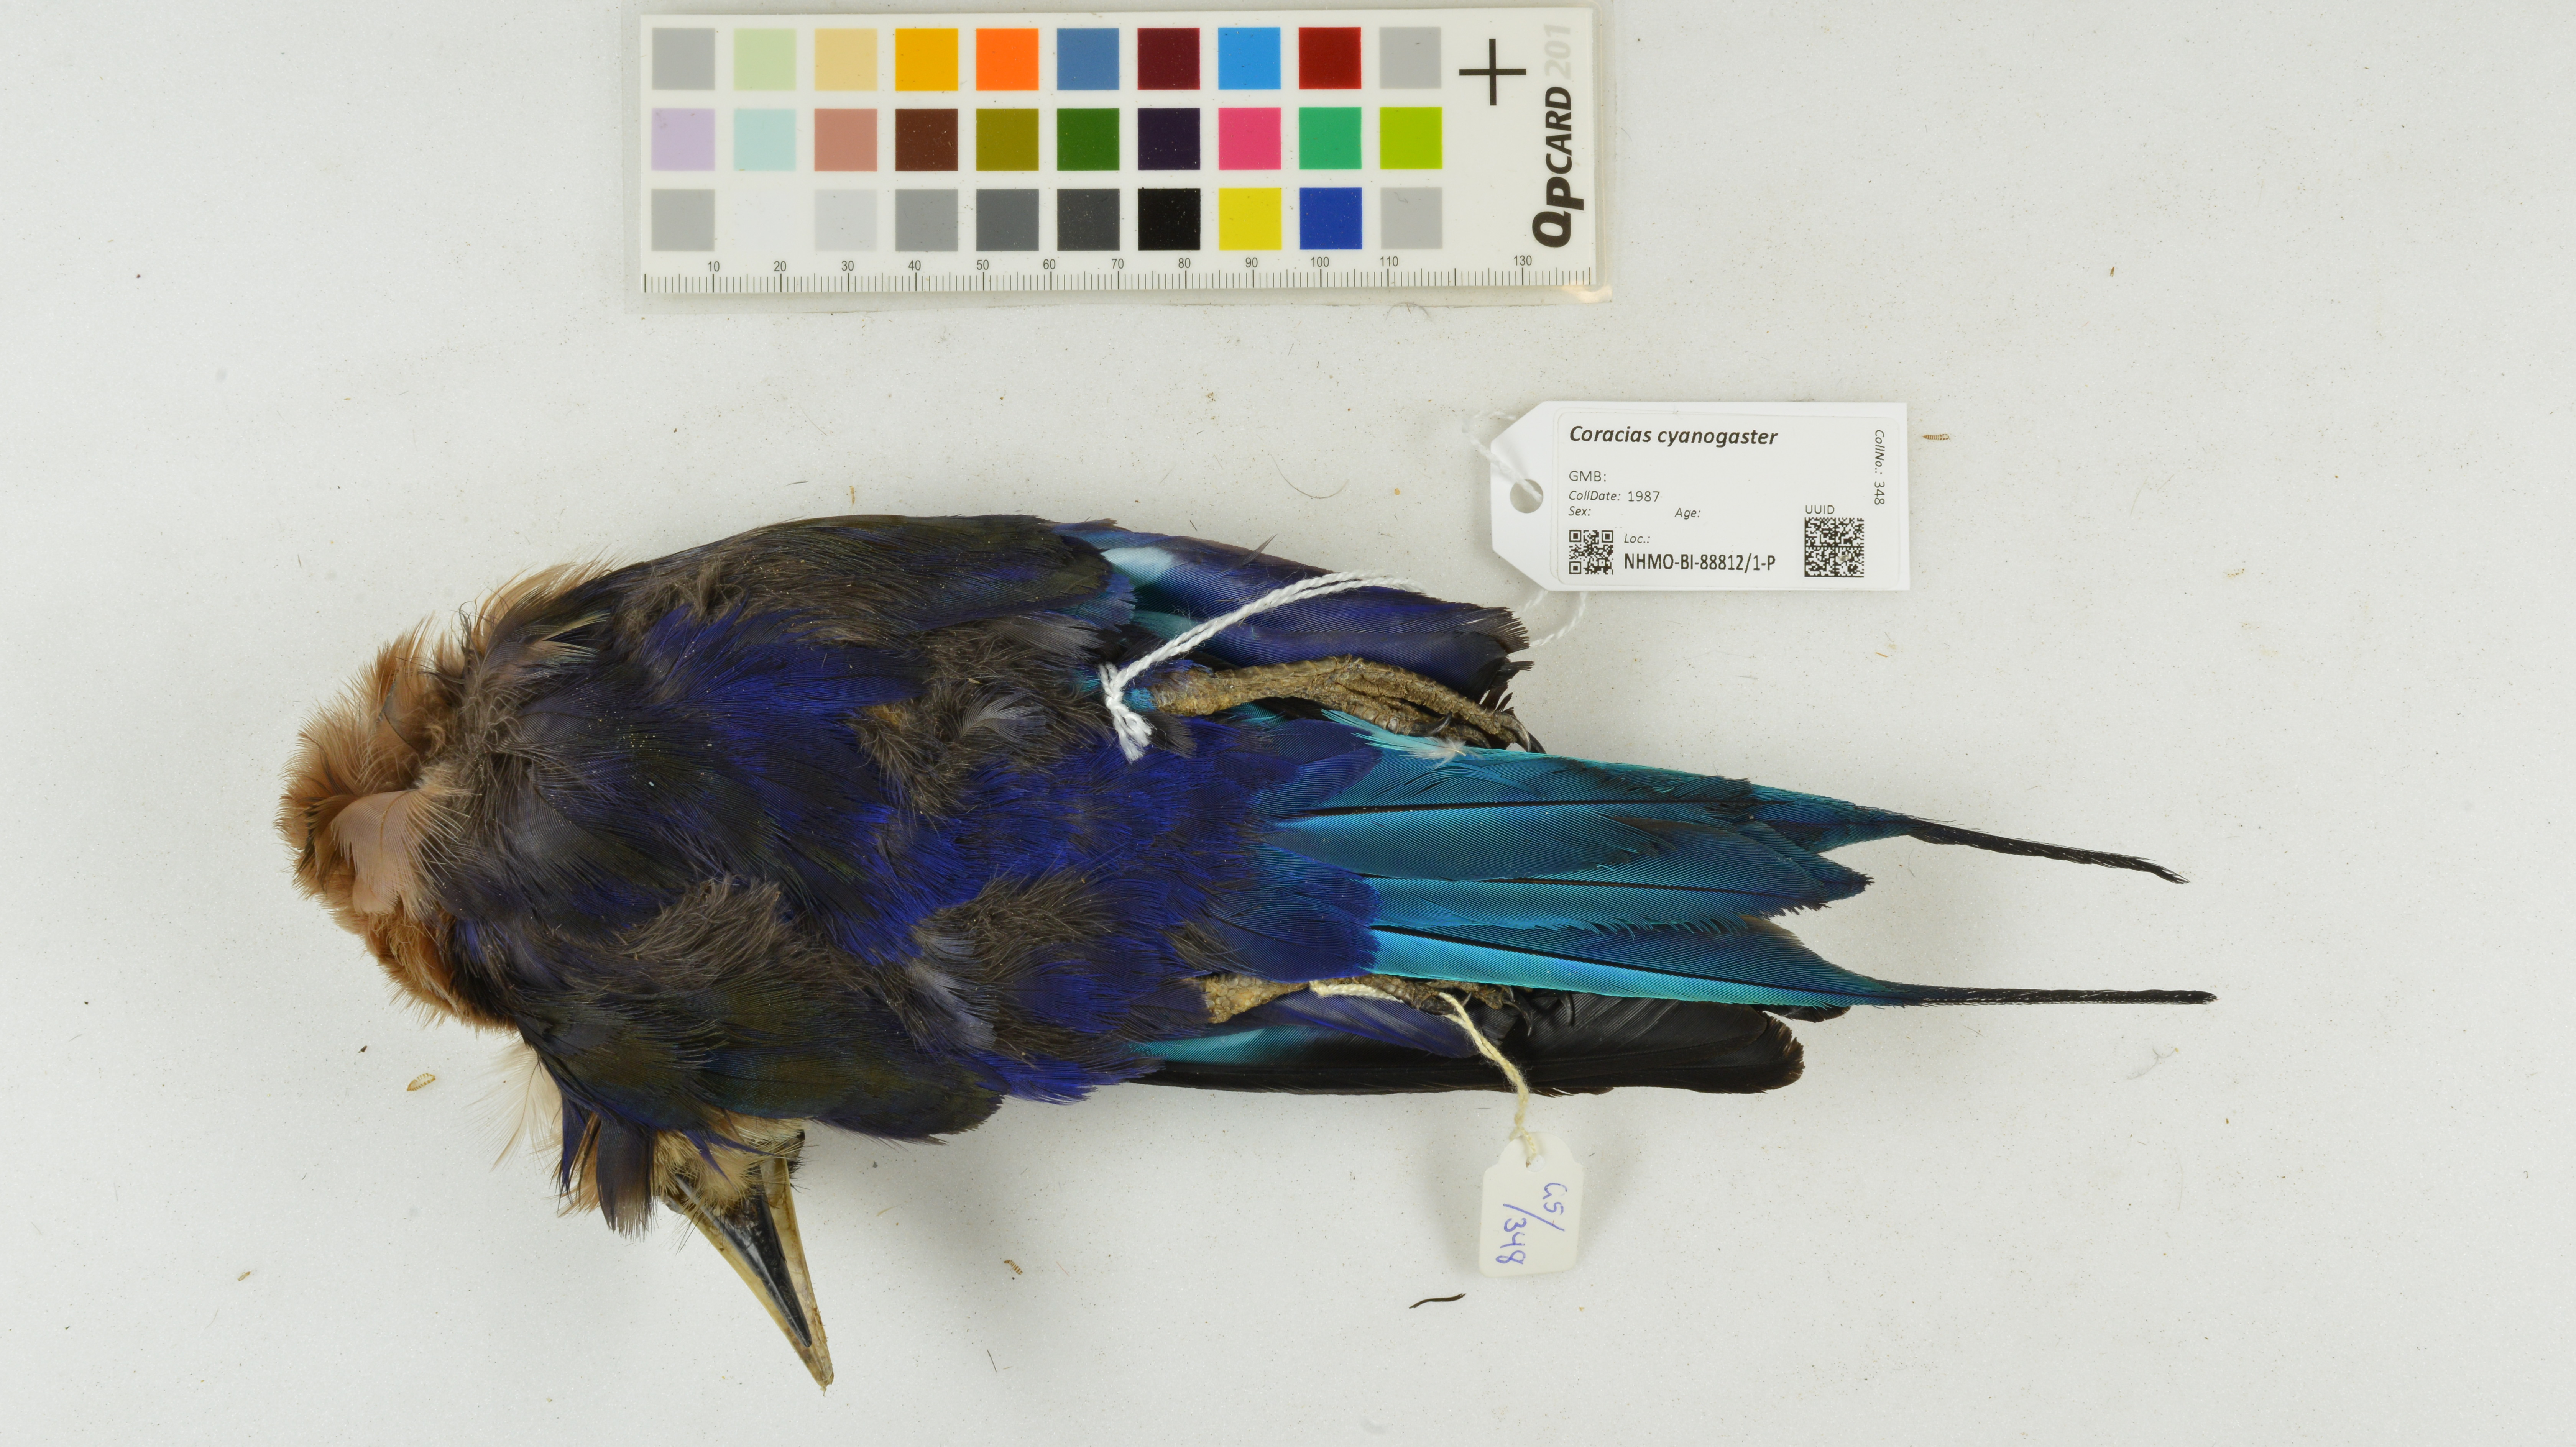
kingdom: Animalia
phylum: Chordata
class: Aves
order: Coraciiformes
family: Coraciidae
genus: Coracias
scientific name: Coracias cyanogaster
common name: Blue-bellied roller
